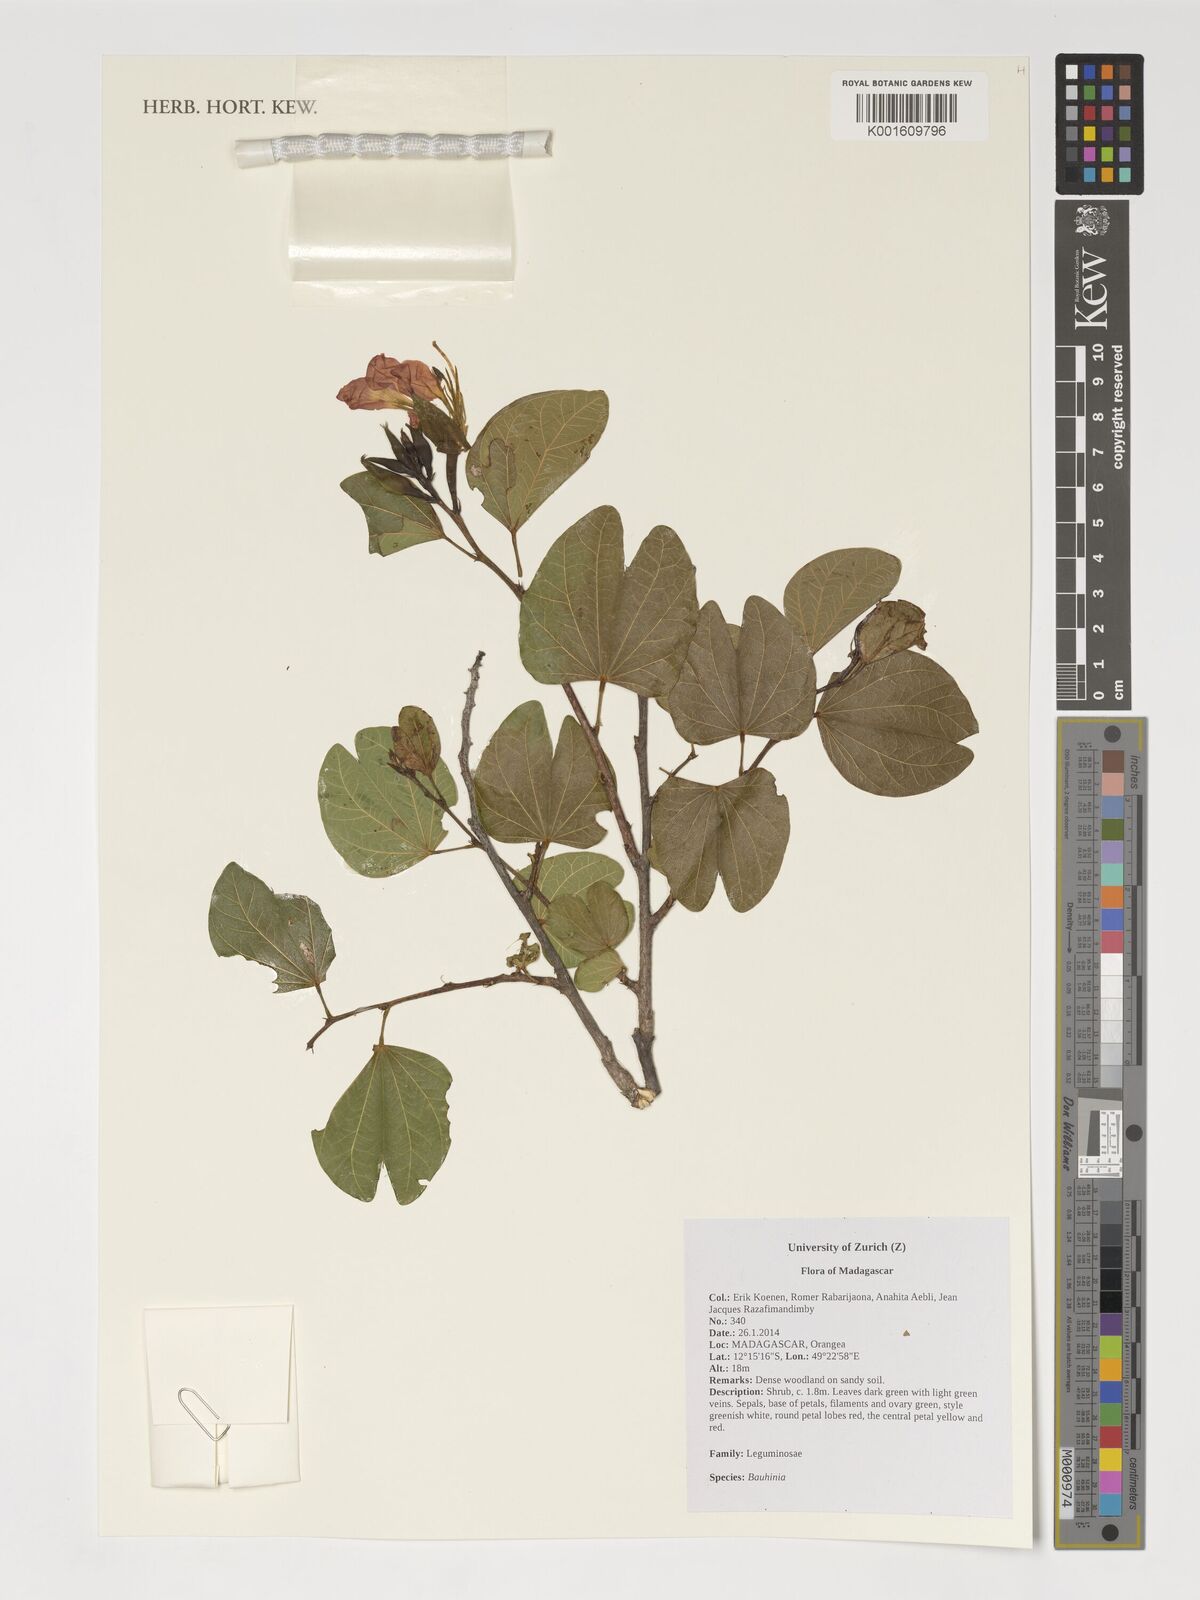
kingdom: Plantae
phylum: Tracheophyta
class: Magnoliopsida
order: Fabales
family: Fabaceae
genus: Bauhinia
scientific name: Bauhinia
